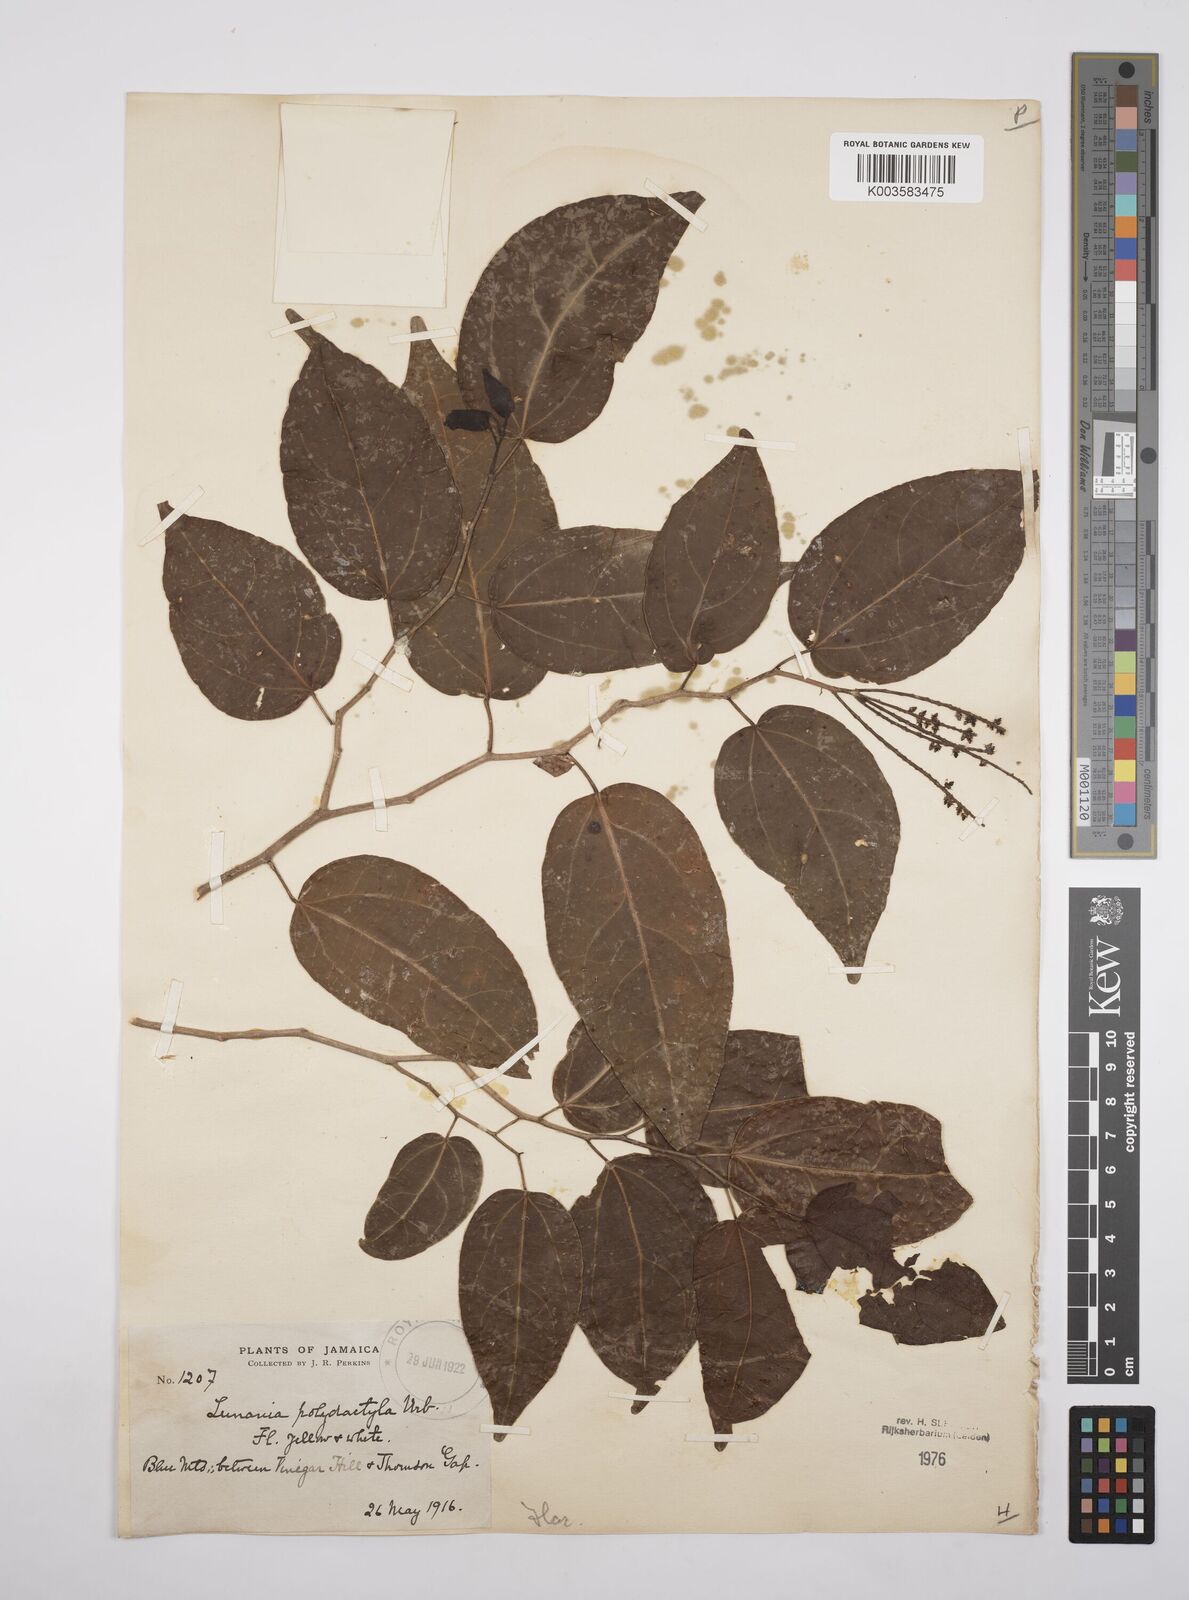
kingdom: Plantae
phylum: Tracheophyta
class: Magnoliopsida
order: Malpighiales
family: Salicaceae
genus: Lunania
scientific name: Lunania polydactyla
